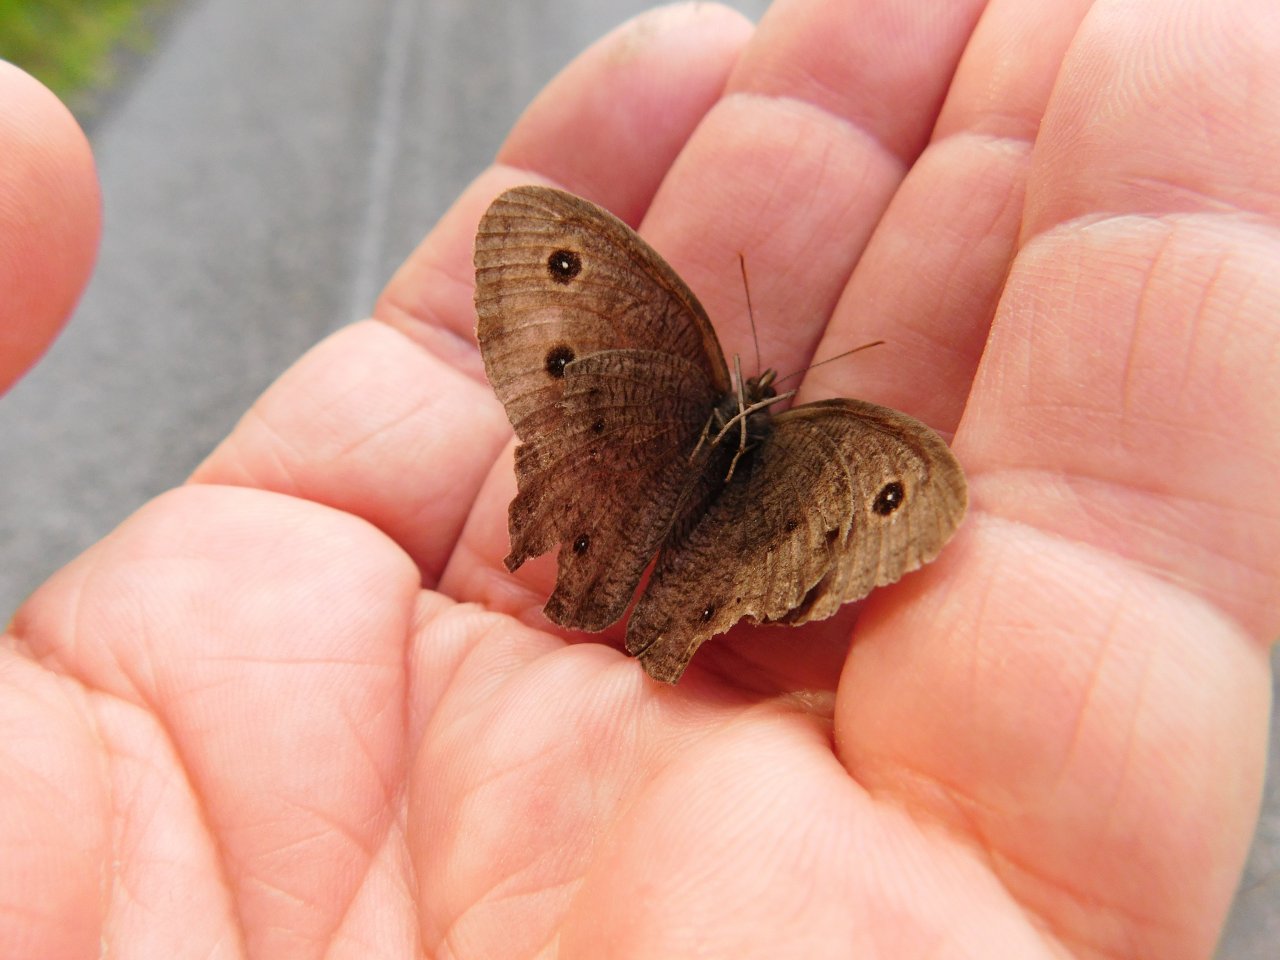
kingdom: Animalia
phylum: Arthropoda
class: Insecta
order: Lepidoptera
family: Nymphalidae
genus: Cercyonis
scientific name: Cercyonis pegala
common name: Common Wood-Nymph
